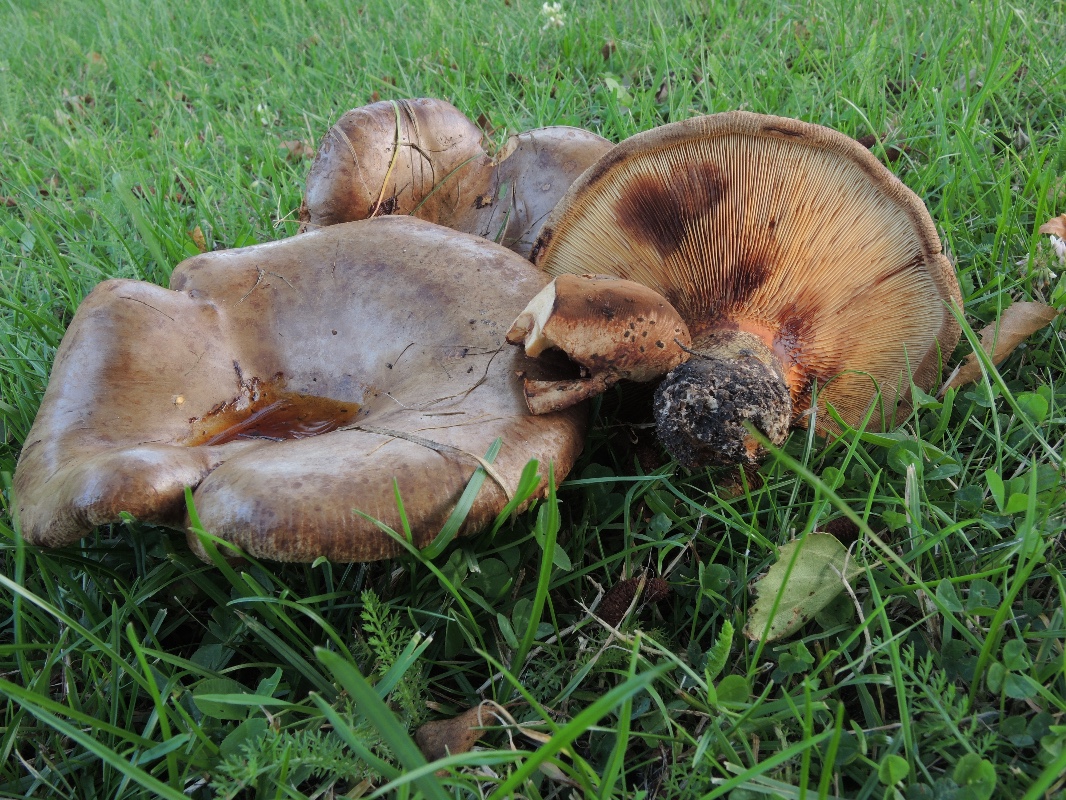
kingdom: Fungi
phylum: Basidiomycota
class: Agaricomycetes
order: Boletales
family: Paxillaceae
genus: Paxillus
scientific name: Paxillus obscurisporus
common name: mahognisporet netbladhat
